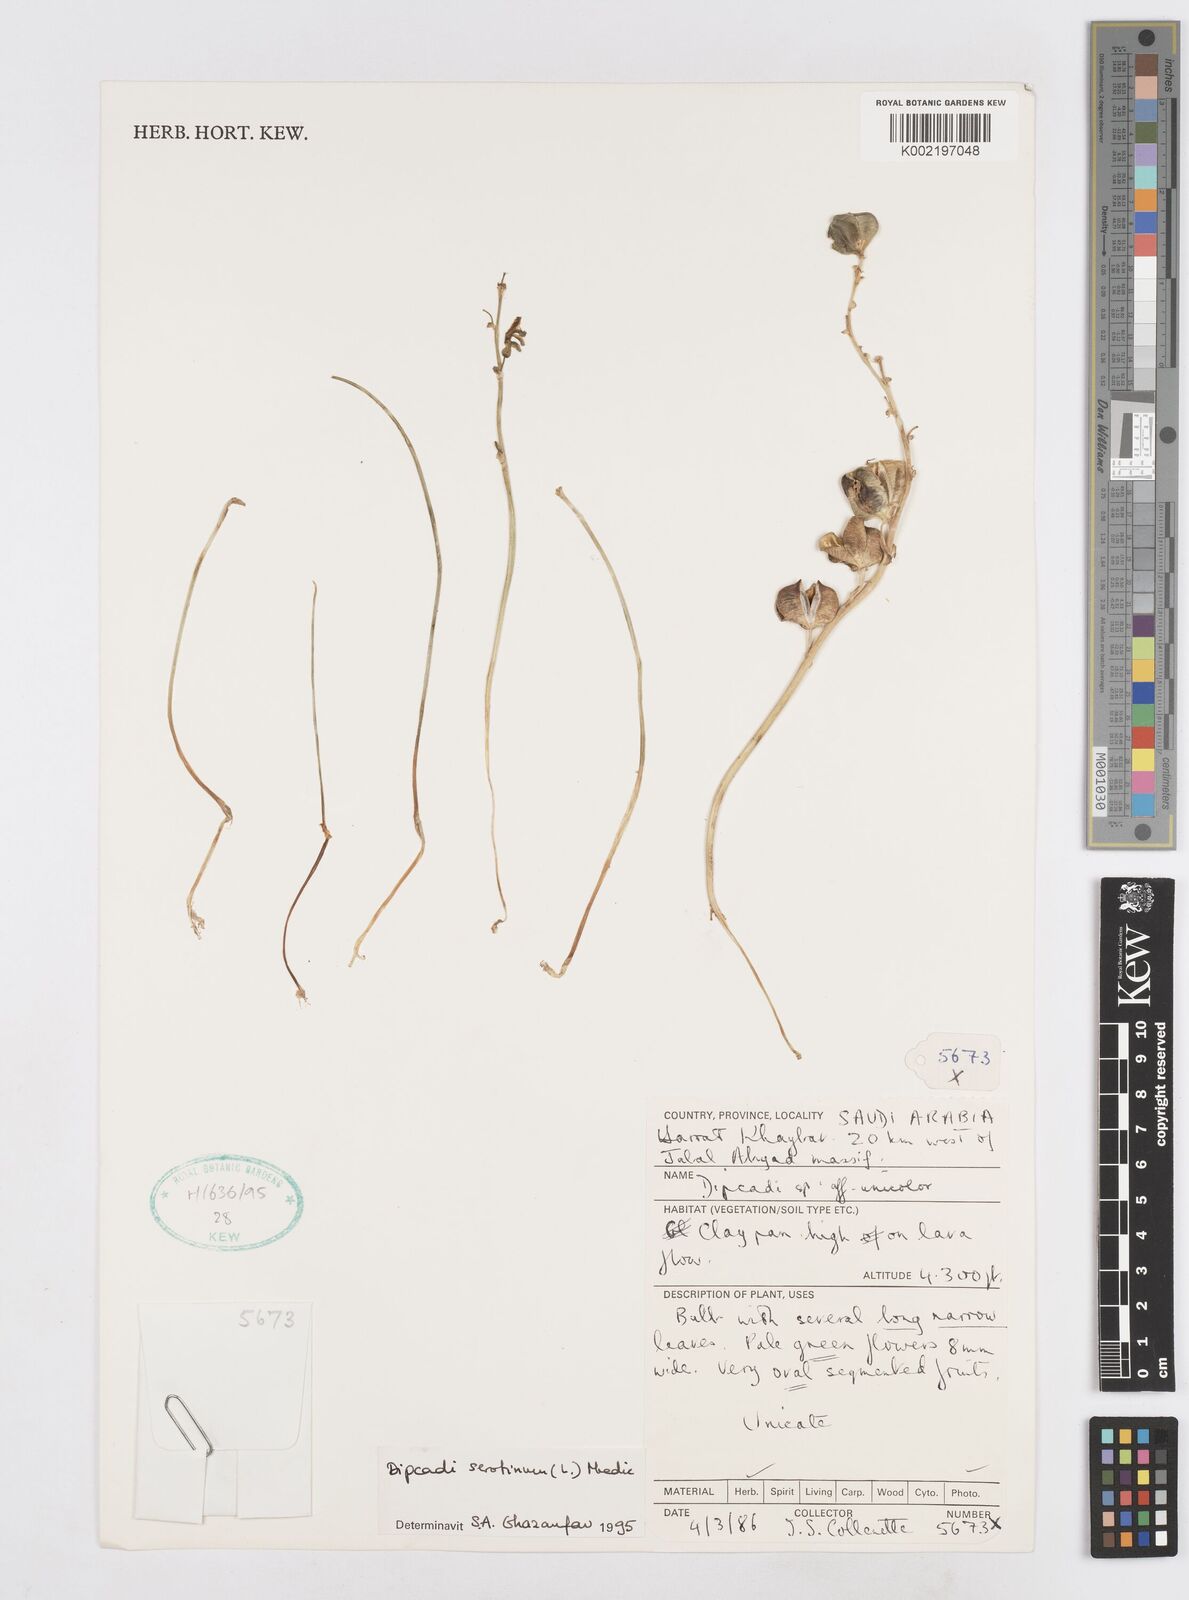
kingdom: Plantae
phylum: Tracheophyta
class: Liliopsida
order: Asparagales
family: Asparagaceae
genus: Dipcadi
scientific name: Dipcadi serotinum
